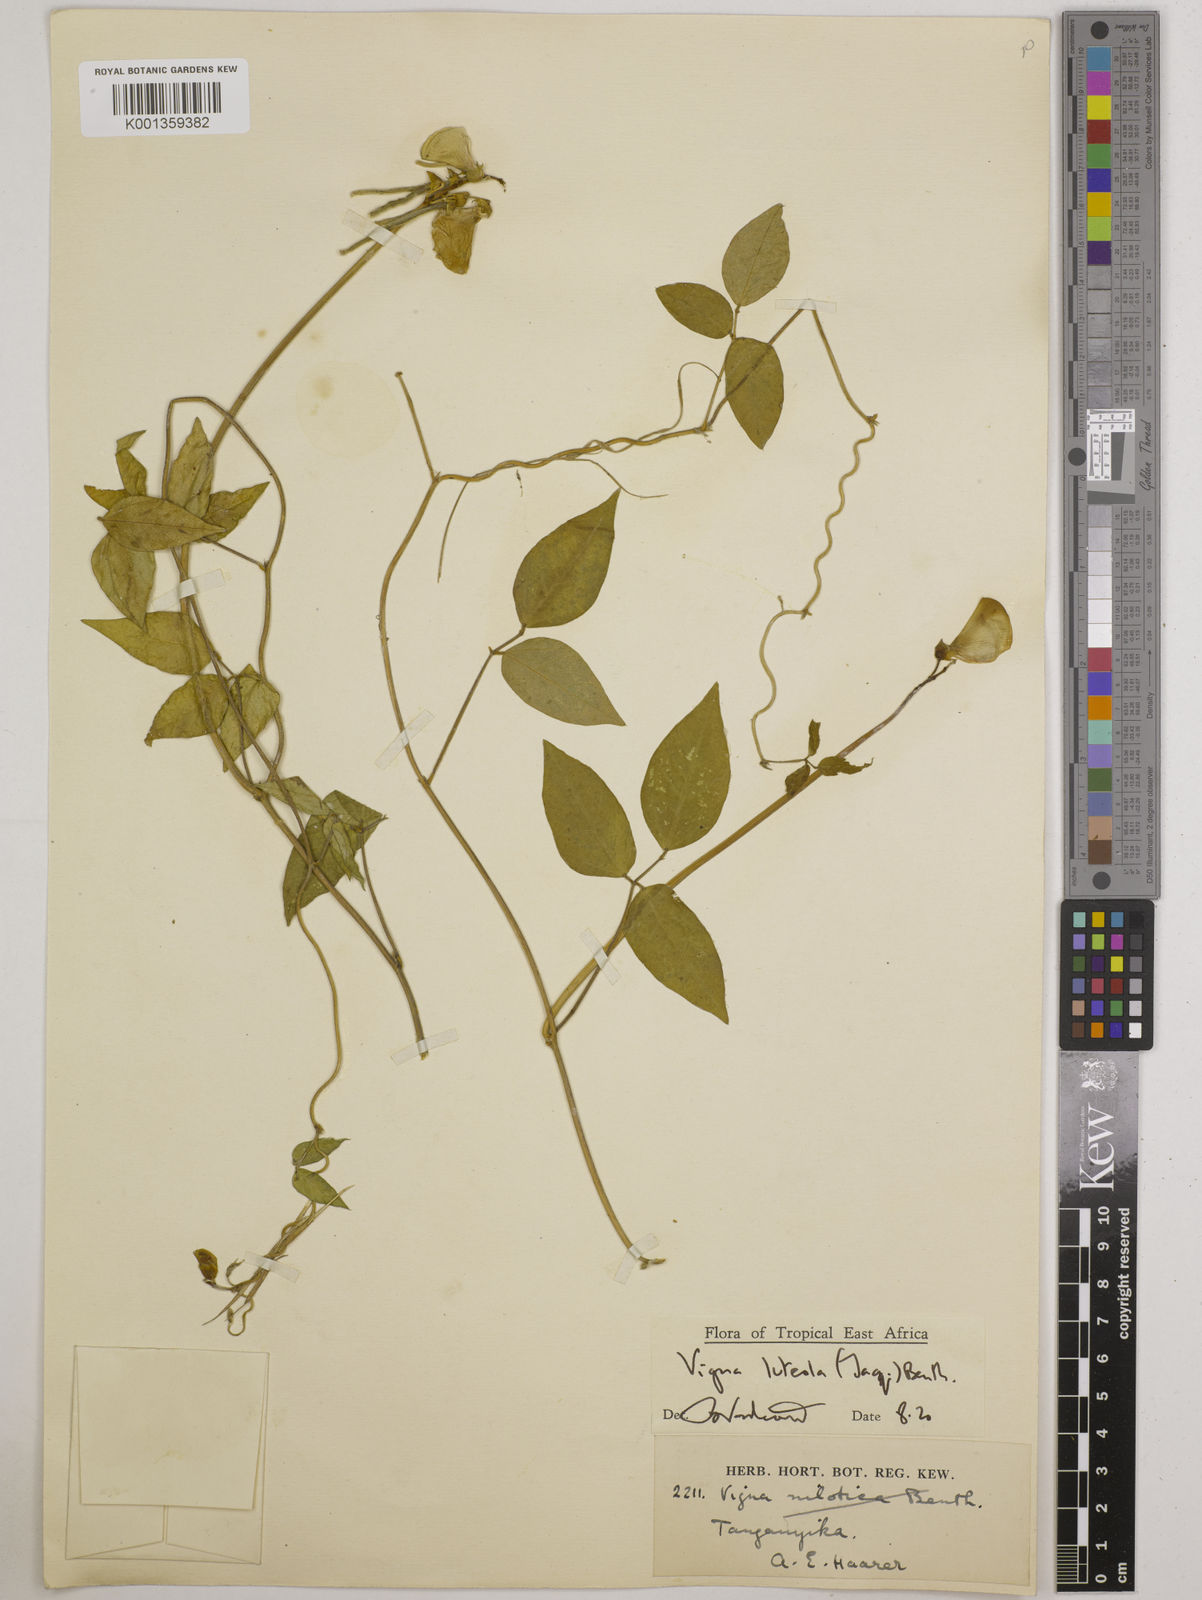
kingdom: Plantae
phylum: Tracheophyta
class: Magnoliopsida
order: Fabales
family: Fabaceae
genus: Vigna
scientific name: Vigna luteola
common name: Hairypod cowpea
